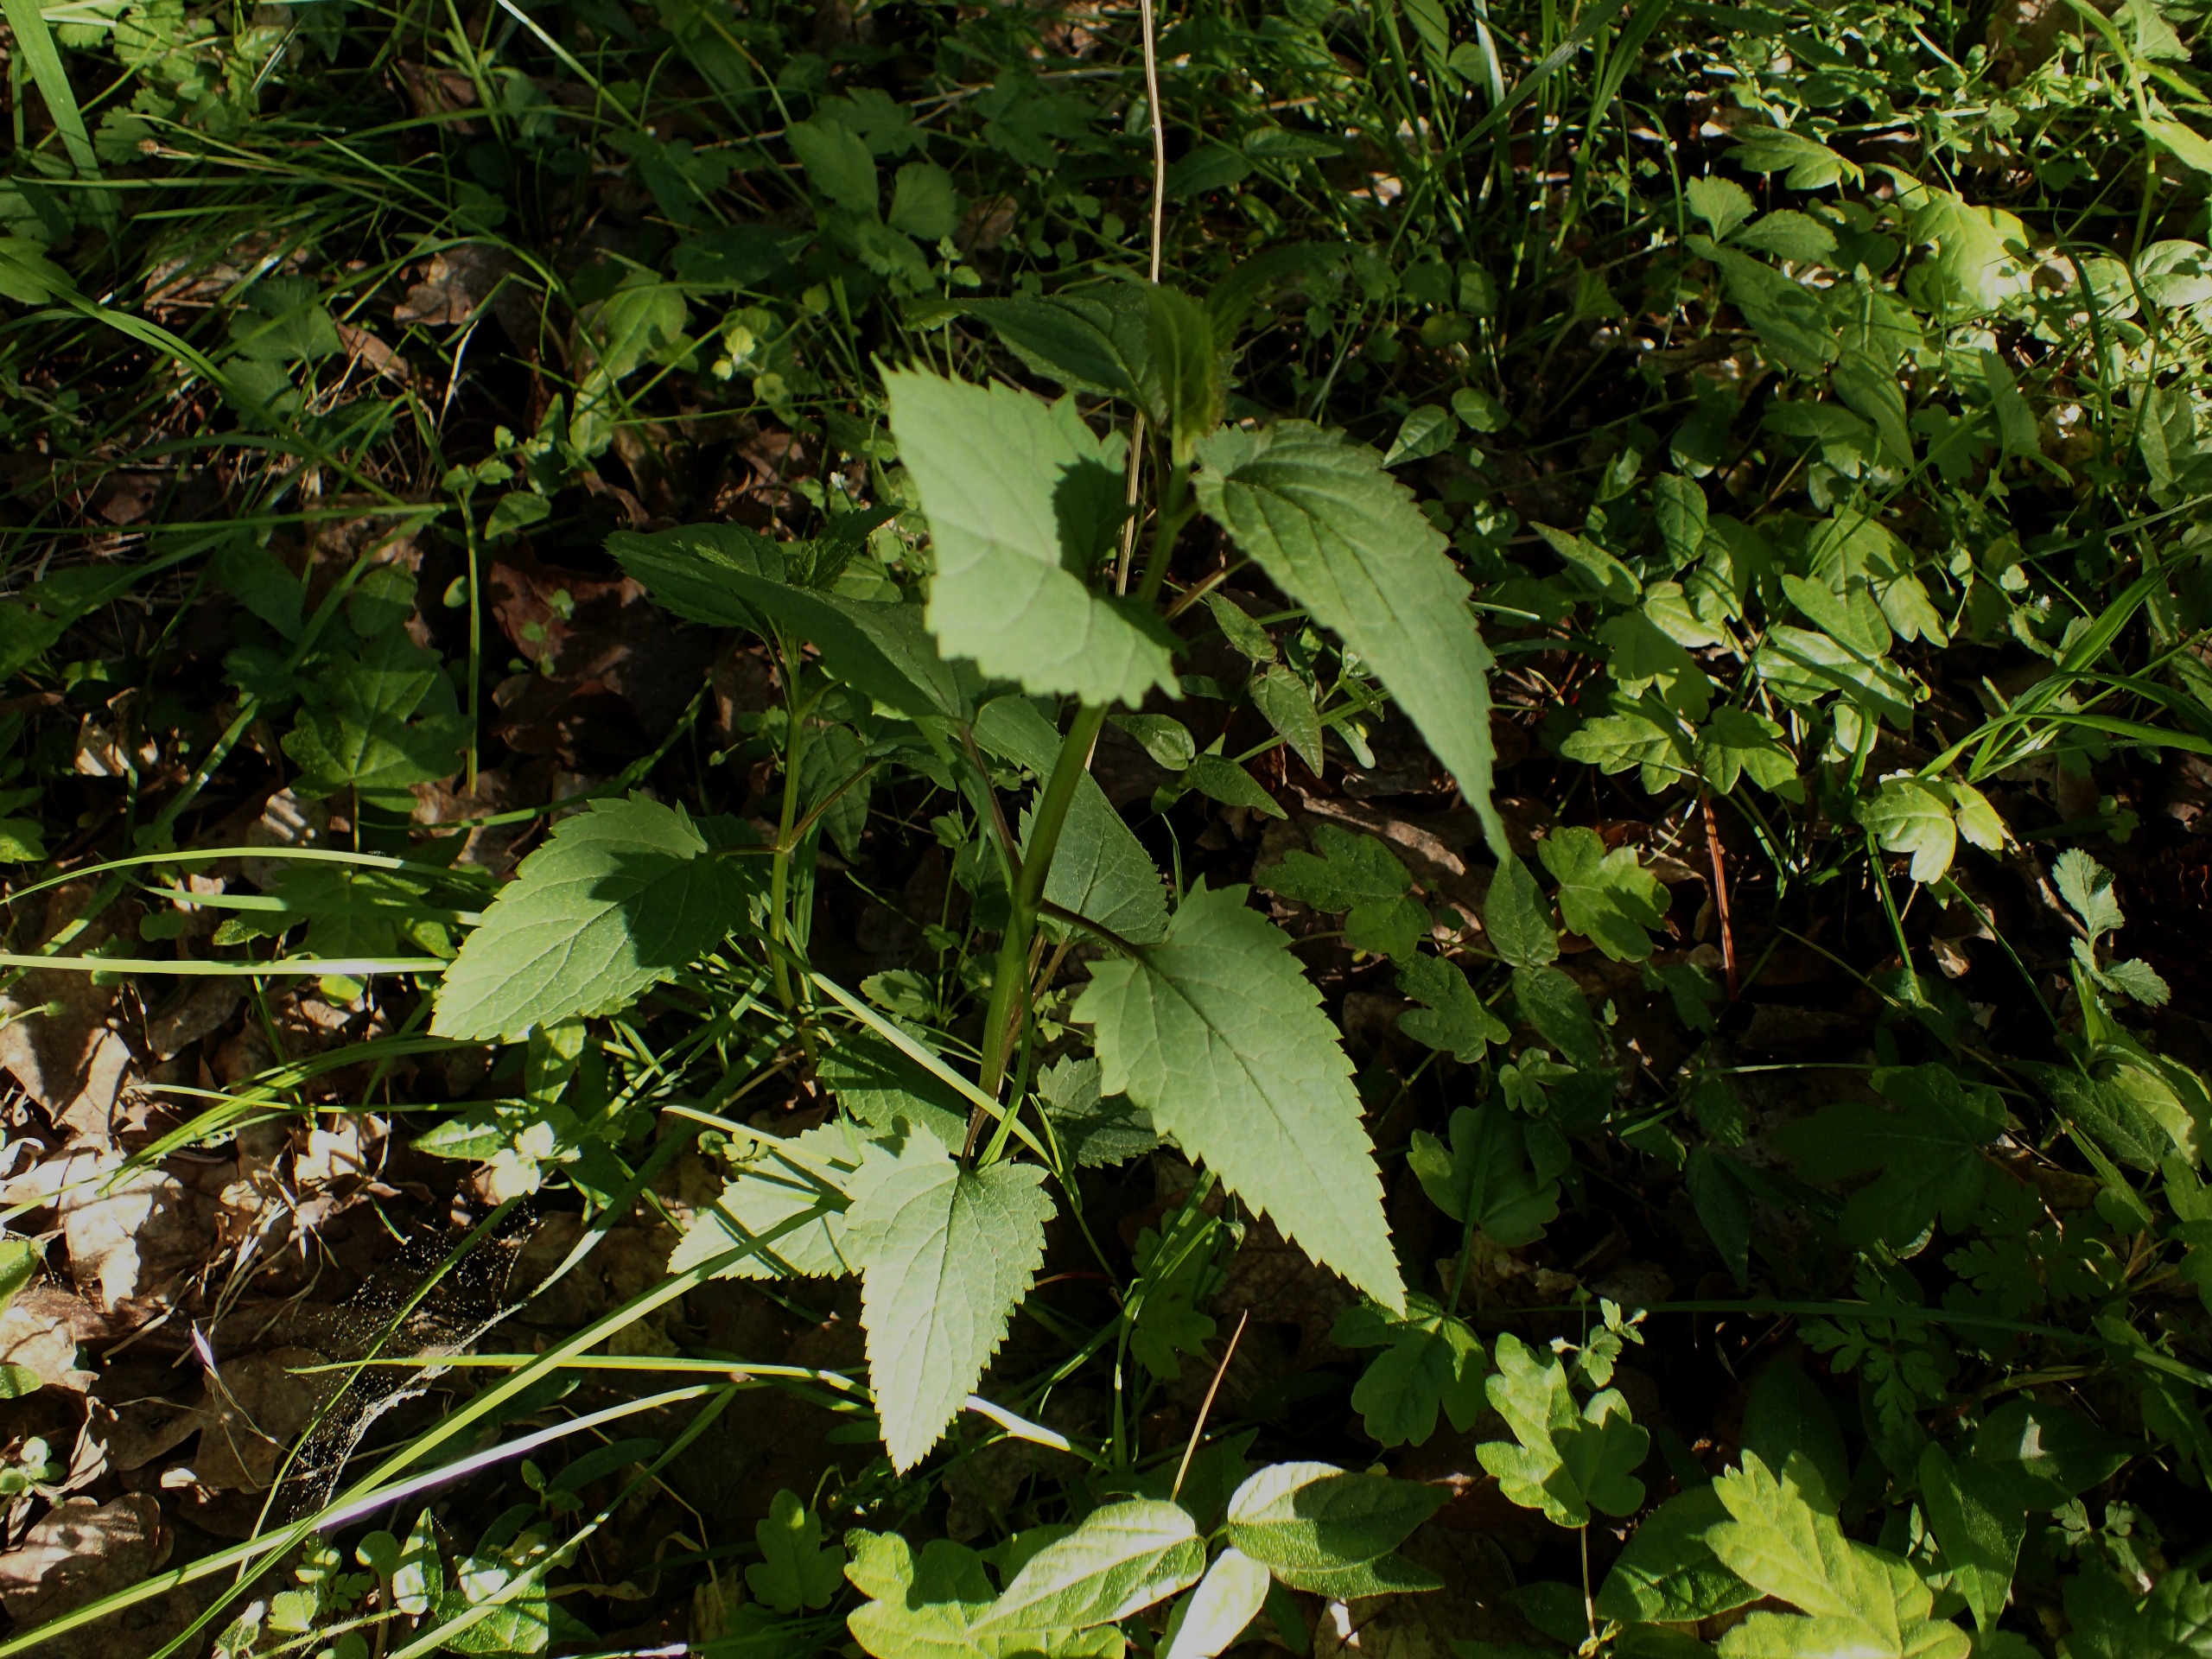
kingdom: Plantae
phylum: Tracheophyta
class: Magnoliopsida
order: Lamiales
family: Scrophulariaceae
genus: Scrophularia
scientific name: Scrophularia nodosa
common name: Knoldet brunrod
